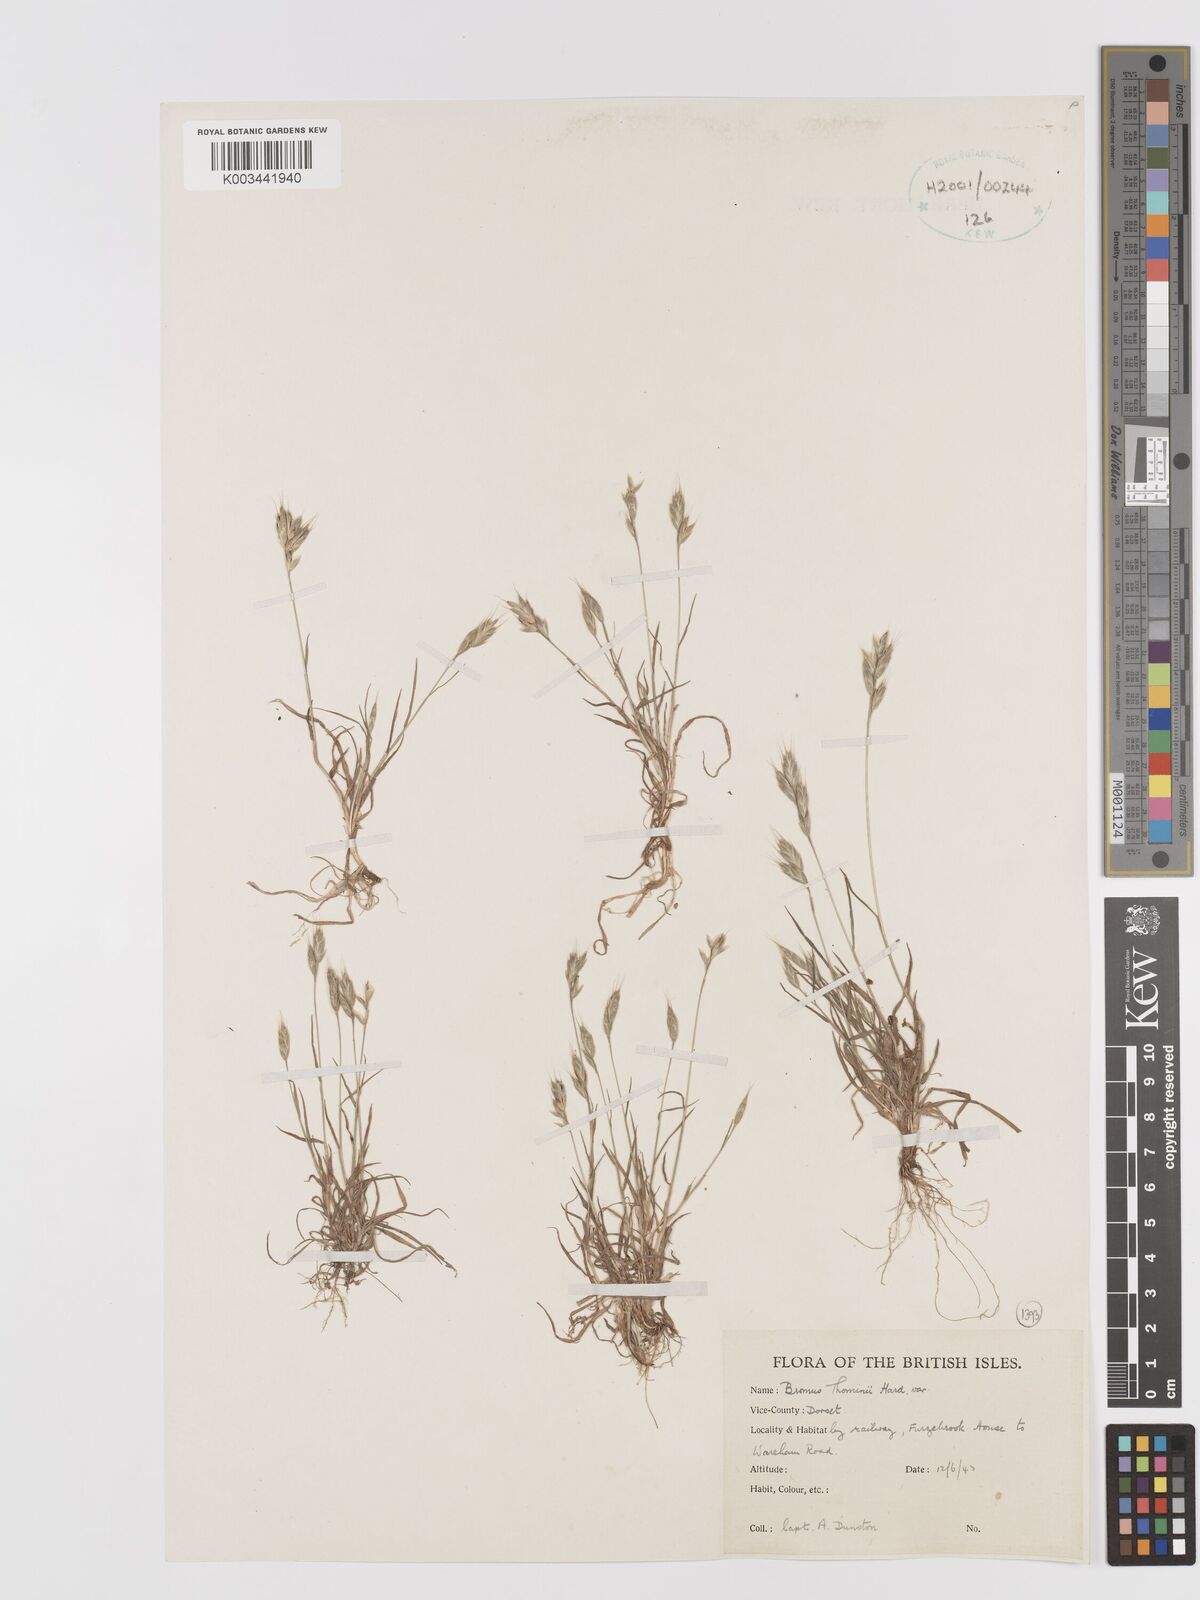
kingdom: Plantae
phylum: Tracheophyta
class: Liliopsida
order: Poales
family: Poaceae
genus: Bromus
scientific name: Bromus hordeaceus
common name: Soft brome
